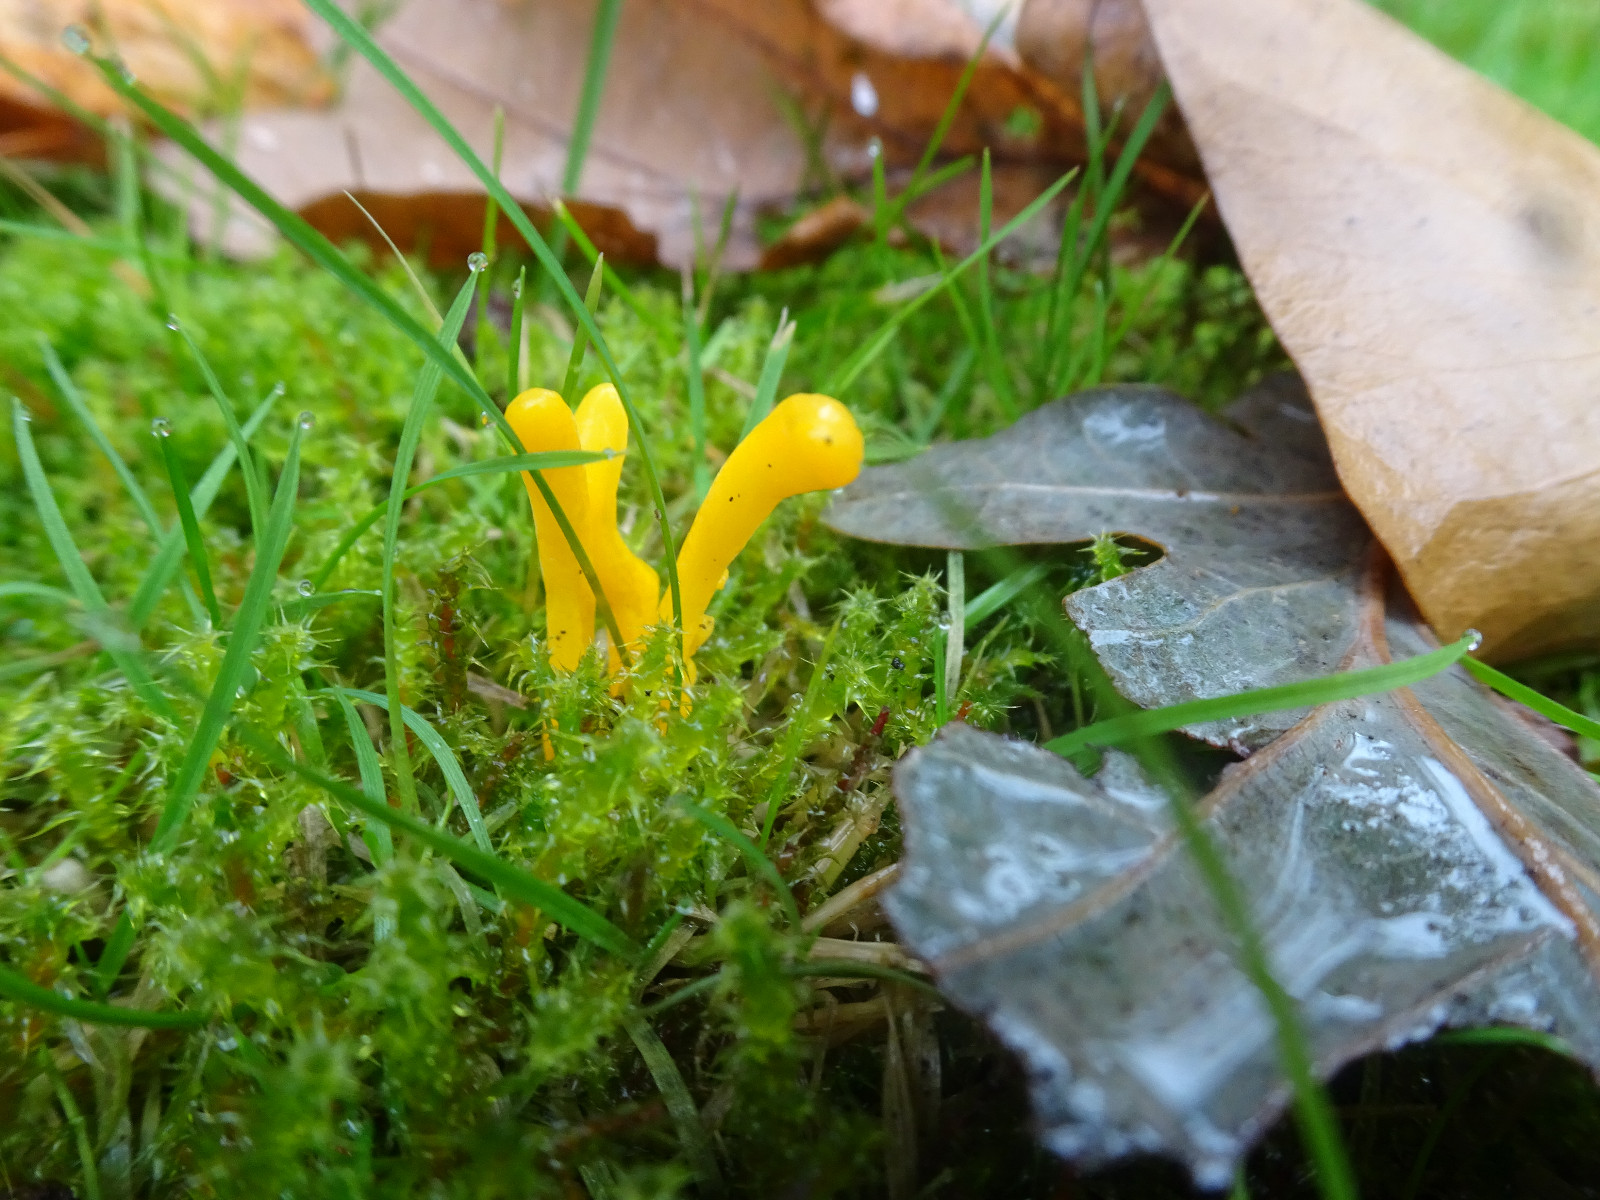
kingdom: Fungi
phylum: Basidiomycota
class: Agaricomycetes
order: Agaricales
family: Clavariaceae
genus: Clavulinopsis
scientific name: Clavulinopsis
